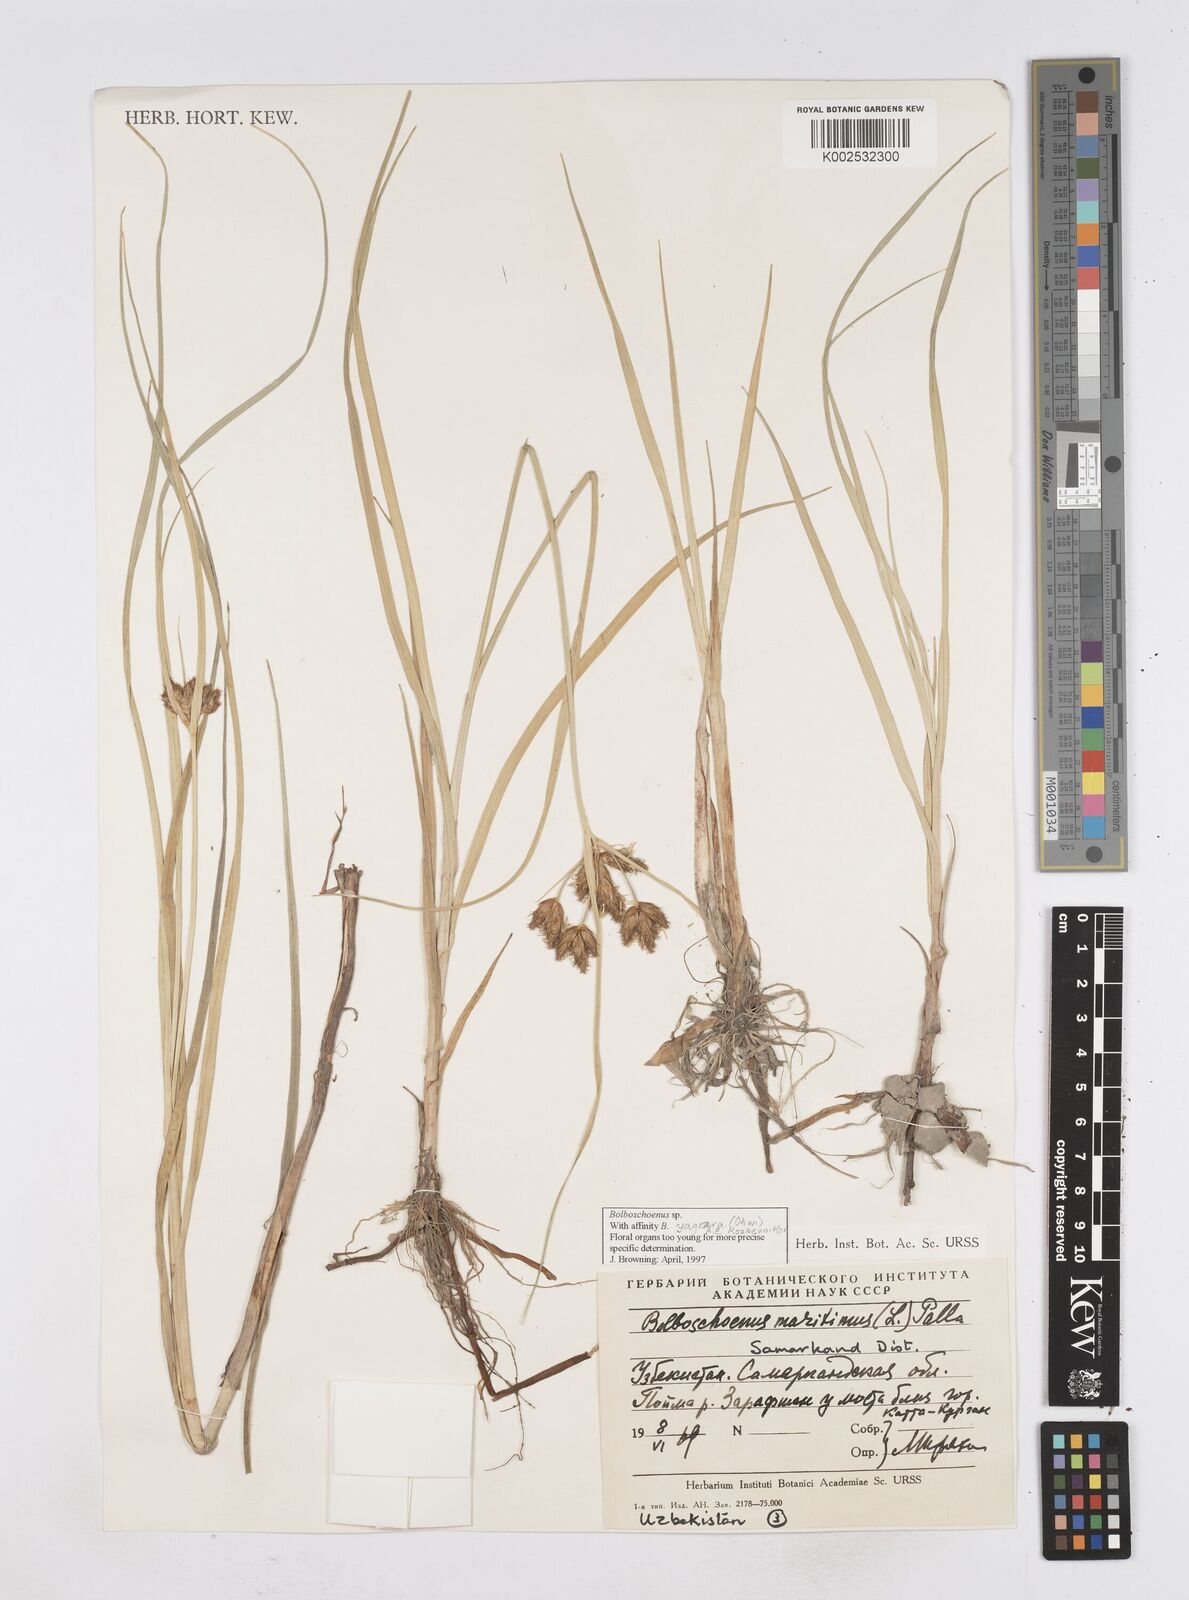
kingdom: Plantae
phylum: Tracheophyta
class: Liliopsida
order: Poales
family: Cyperaceae
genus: Bolboschoenus
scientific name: Bolboschoenus maritimus
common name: Sea club-rush
